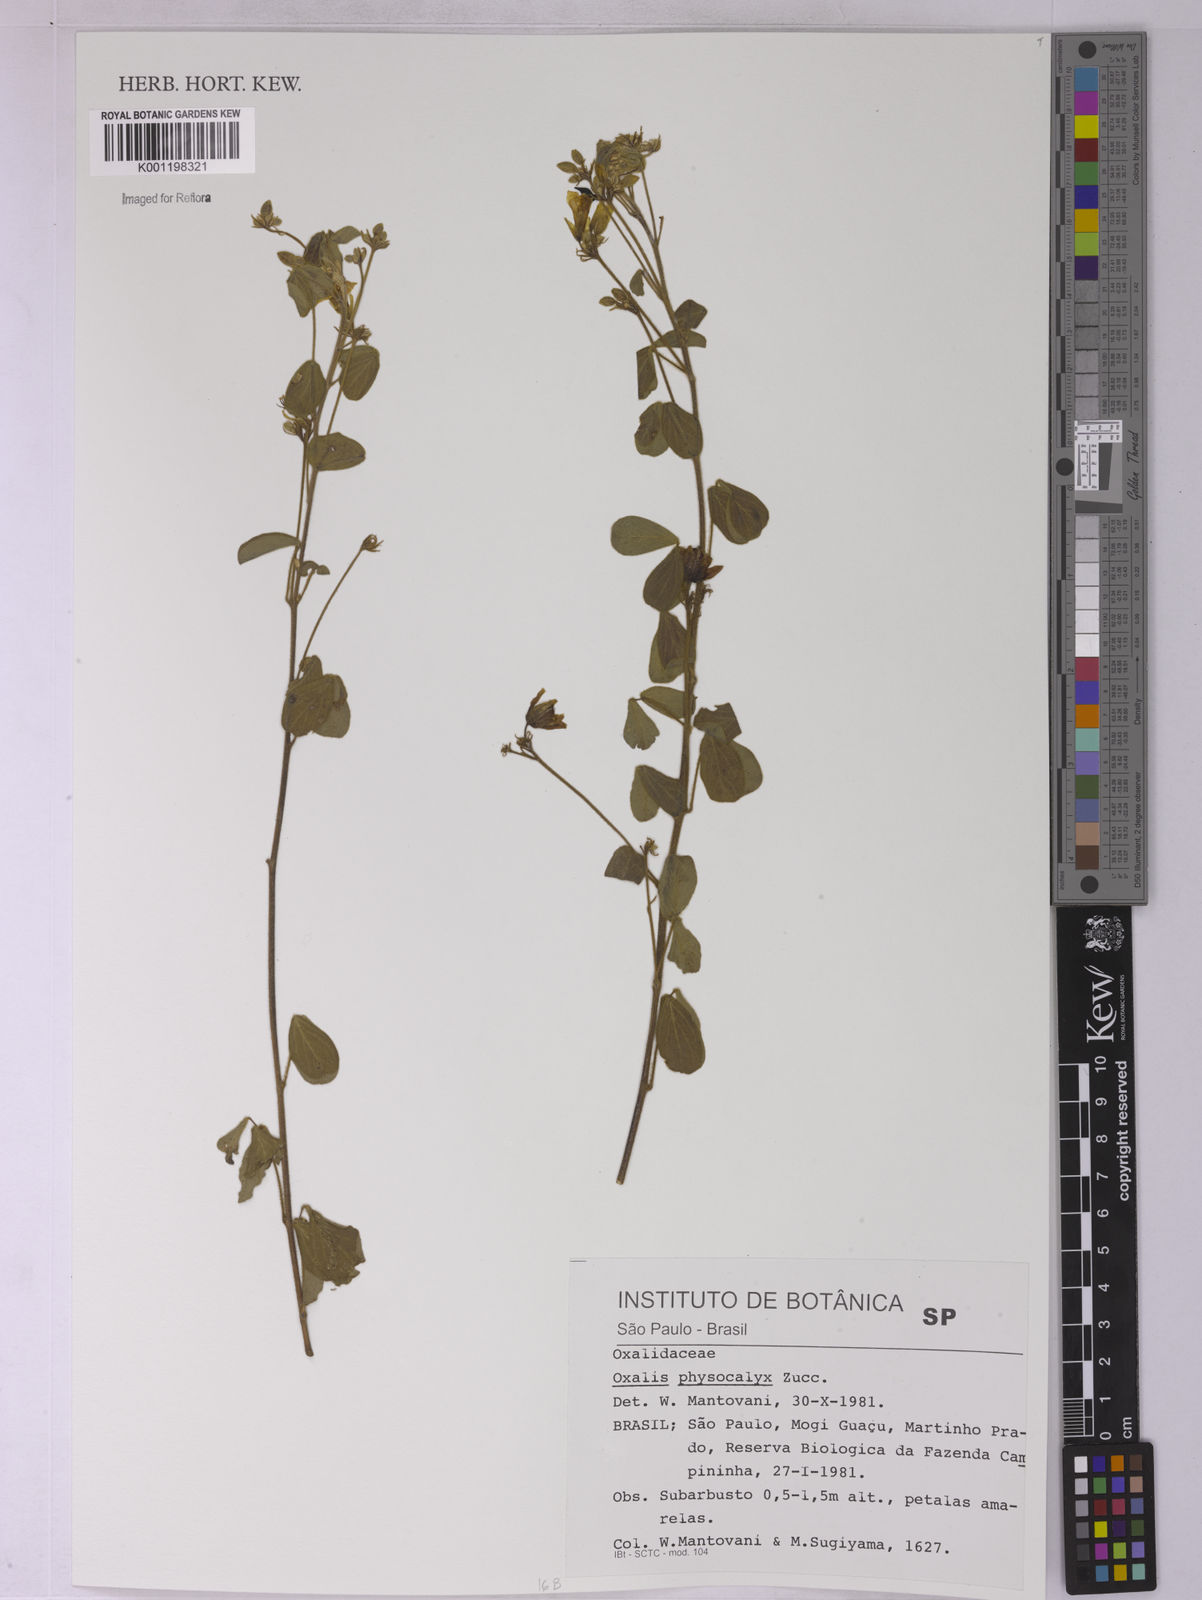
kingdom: Plantae
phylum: Tracheophyta
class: Magnoliopsida
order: Oxalidales
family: Oxalidaceae
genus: Oxalis
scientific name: Oxalis physocalyx
